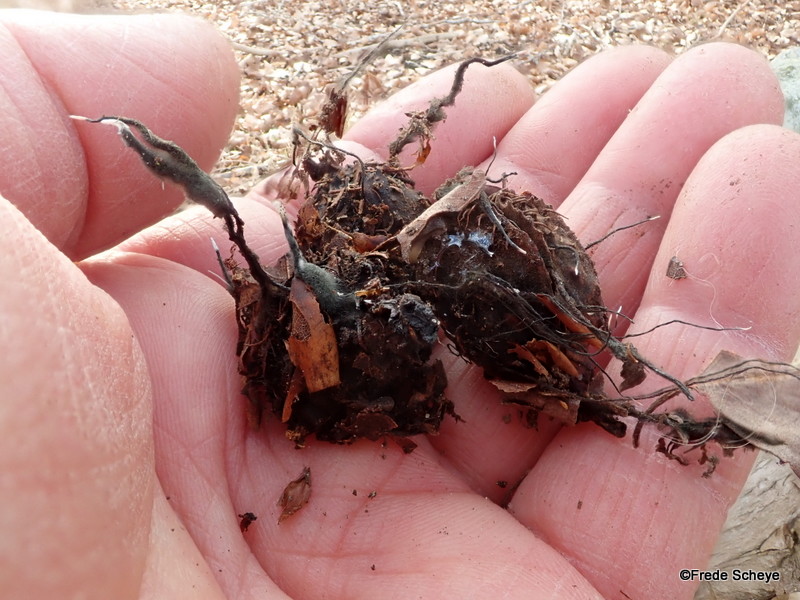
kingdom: Fungi
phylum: Ascomycota
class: Sordariomycetes
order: Xylariales
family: Xylariaceae
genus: Xylaria
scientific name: Xylaria carpophila
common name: bogskål-stødsvamp
